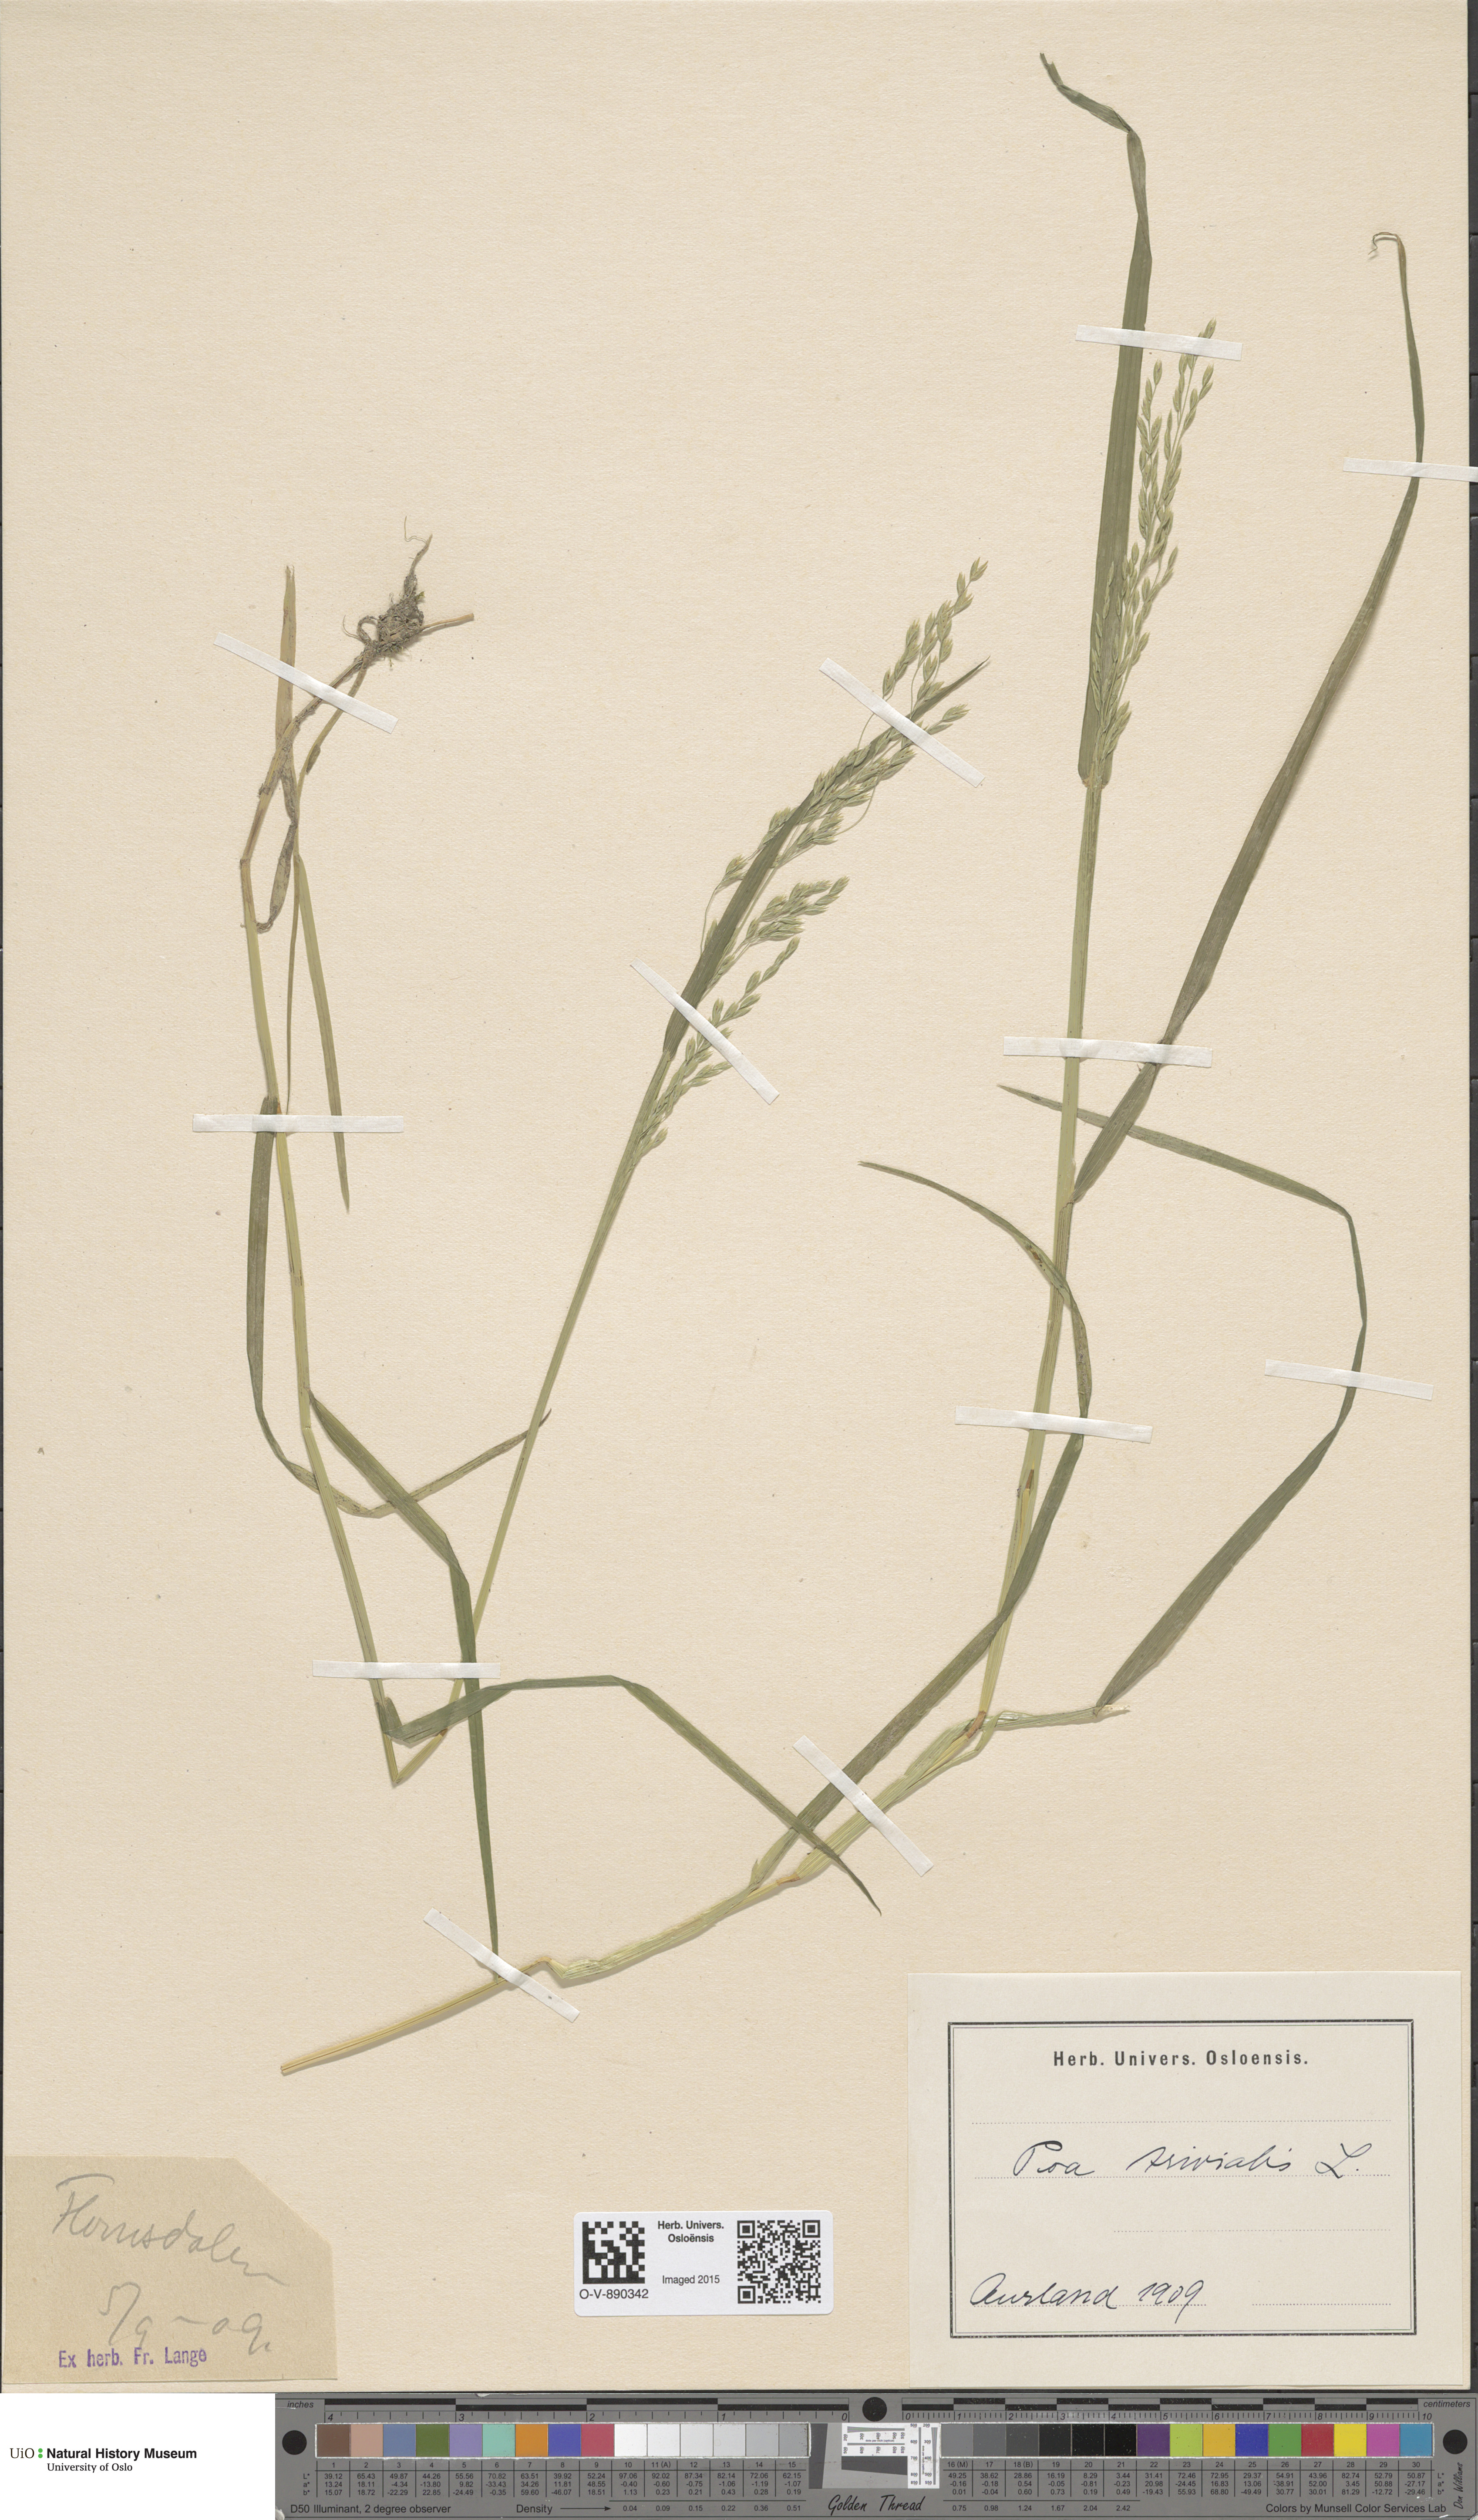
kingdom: Plantae
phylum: Tracheophyta
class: Liliopsida
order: Poales
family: Poaceae
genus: Poa
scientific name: Poa trivialis
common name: Rough bluegrass
